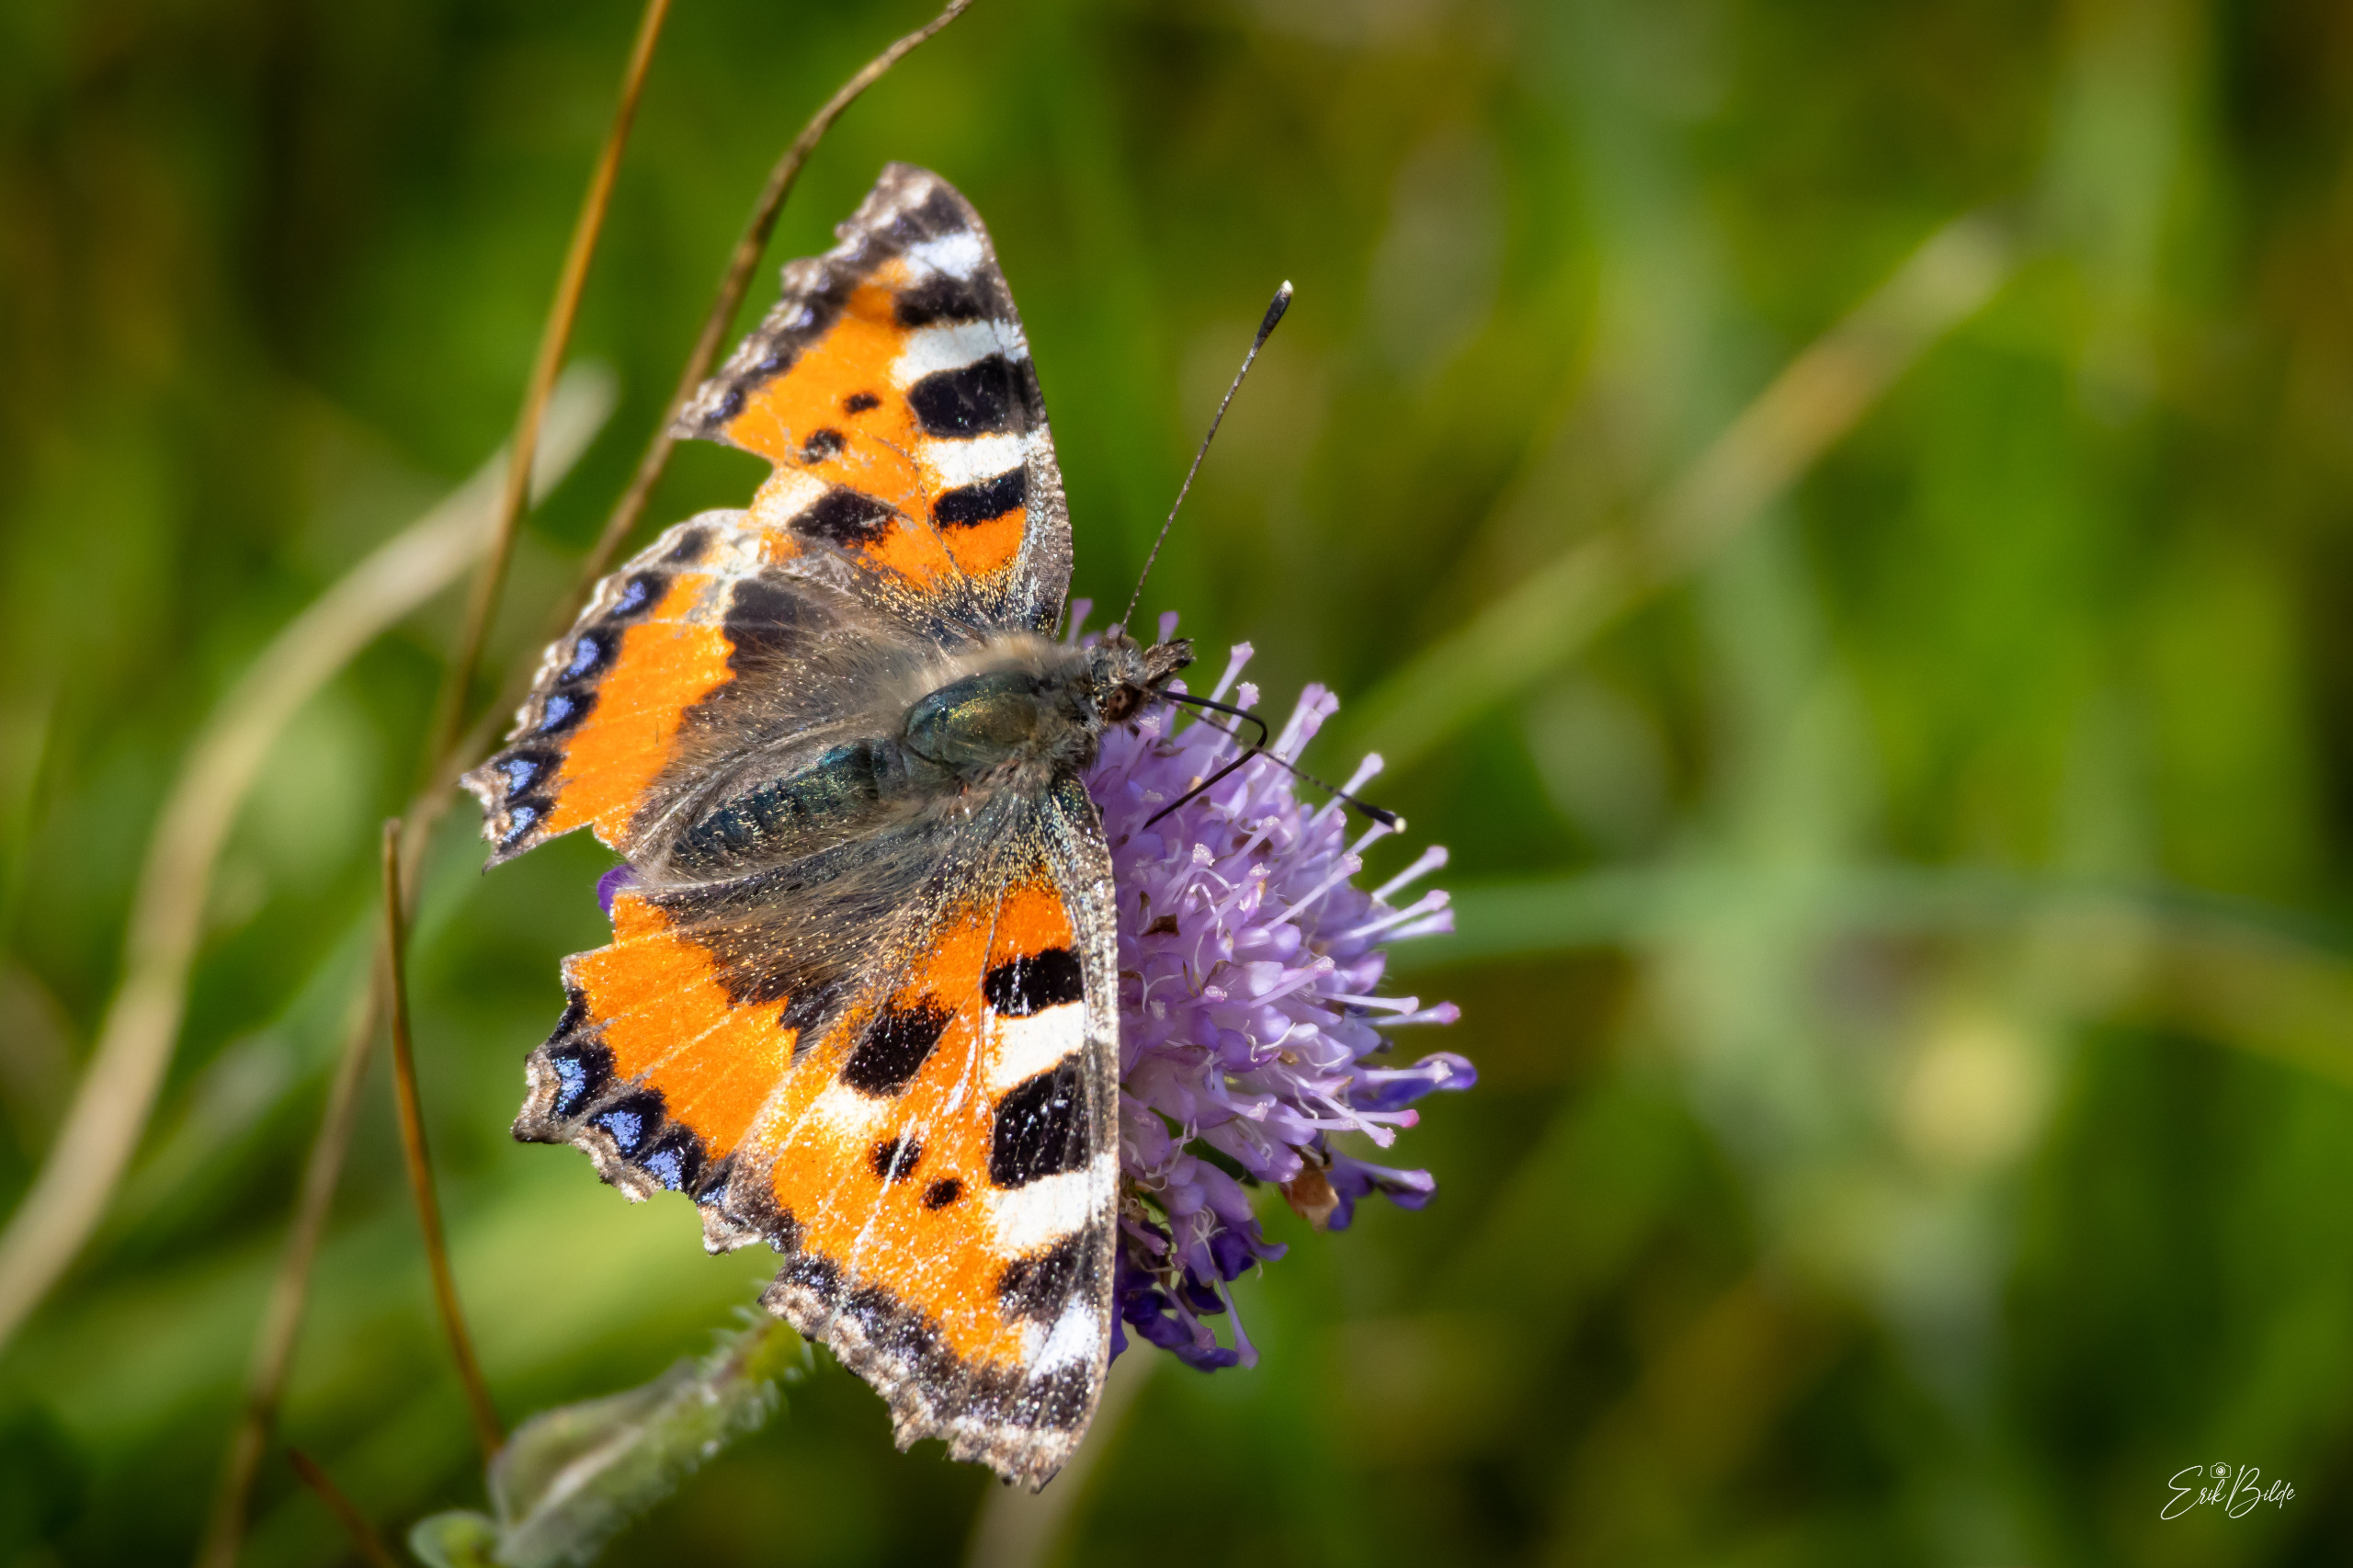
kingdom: Animalia
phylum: Arthropoda
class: Insecta
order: Lepidoptera
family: Nymphalidae
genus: Aglais
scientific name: Aglais urticae
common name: Nældens takvinge
